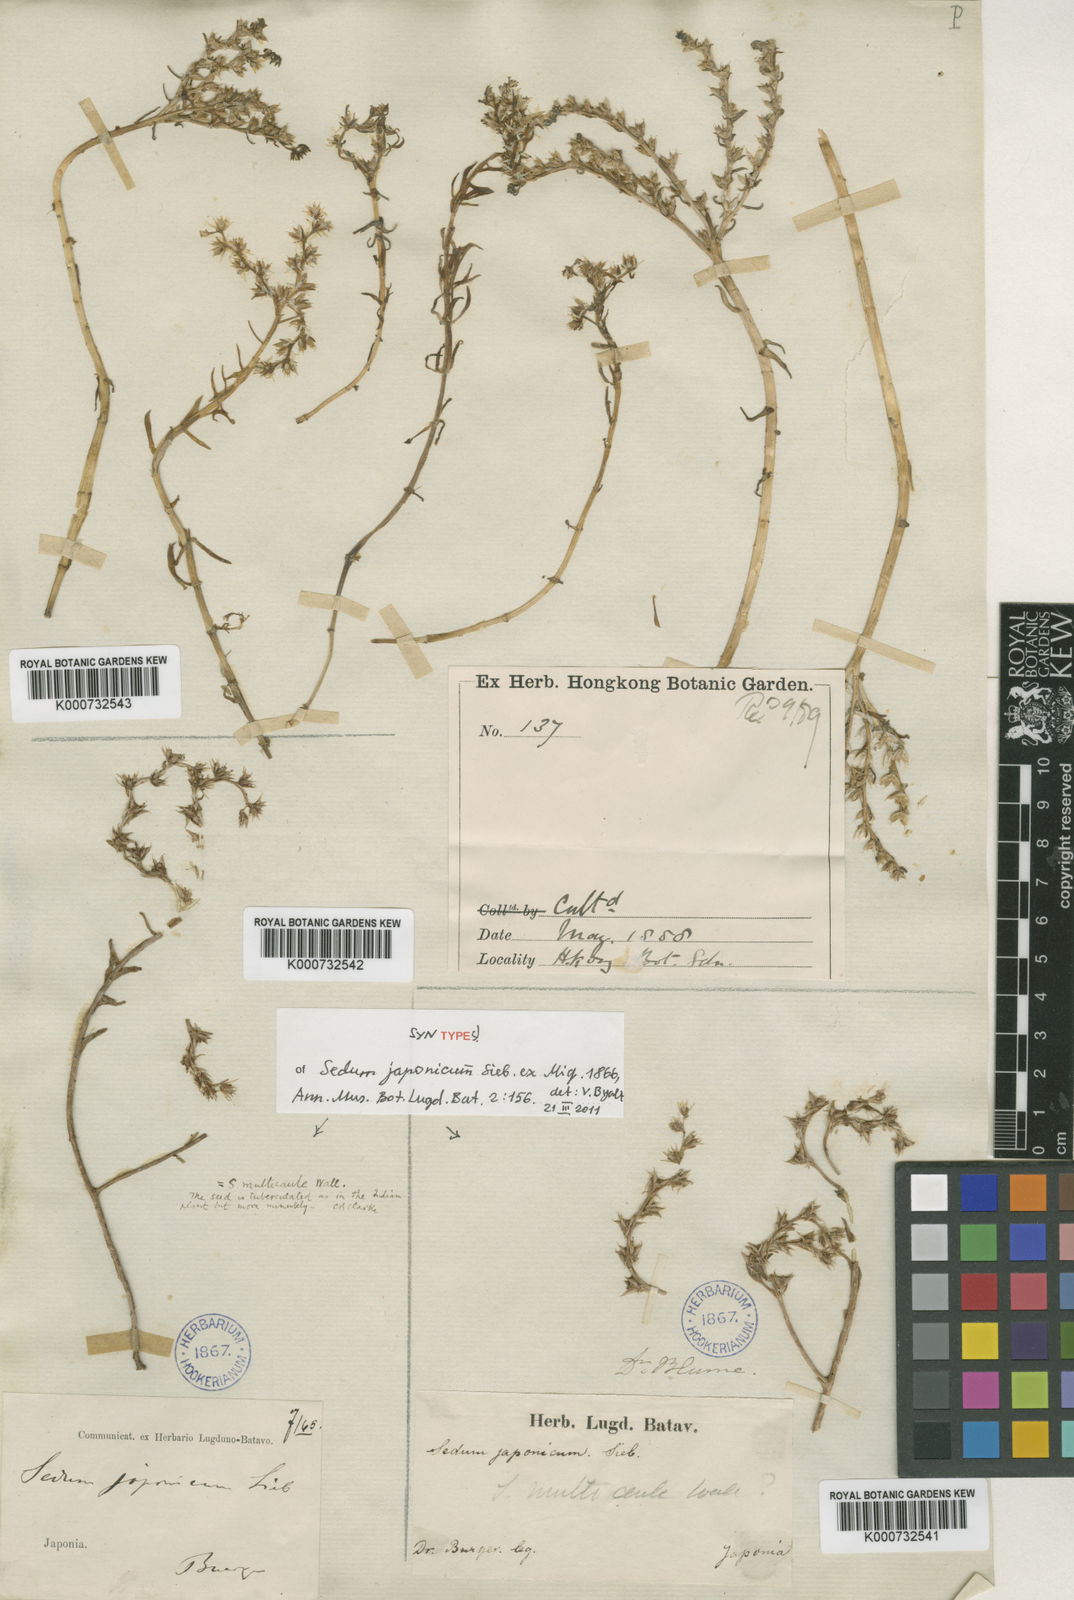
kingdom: Plantae
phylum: Tracheophyta
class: Magnoliopsida
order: Saxifragales
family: Crassulaceae
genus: Sedum
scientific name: Sedum japonicum
